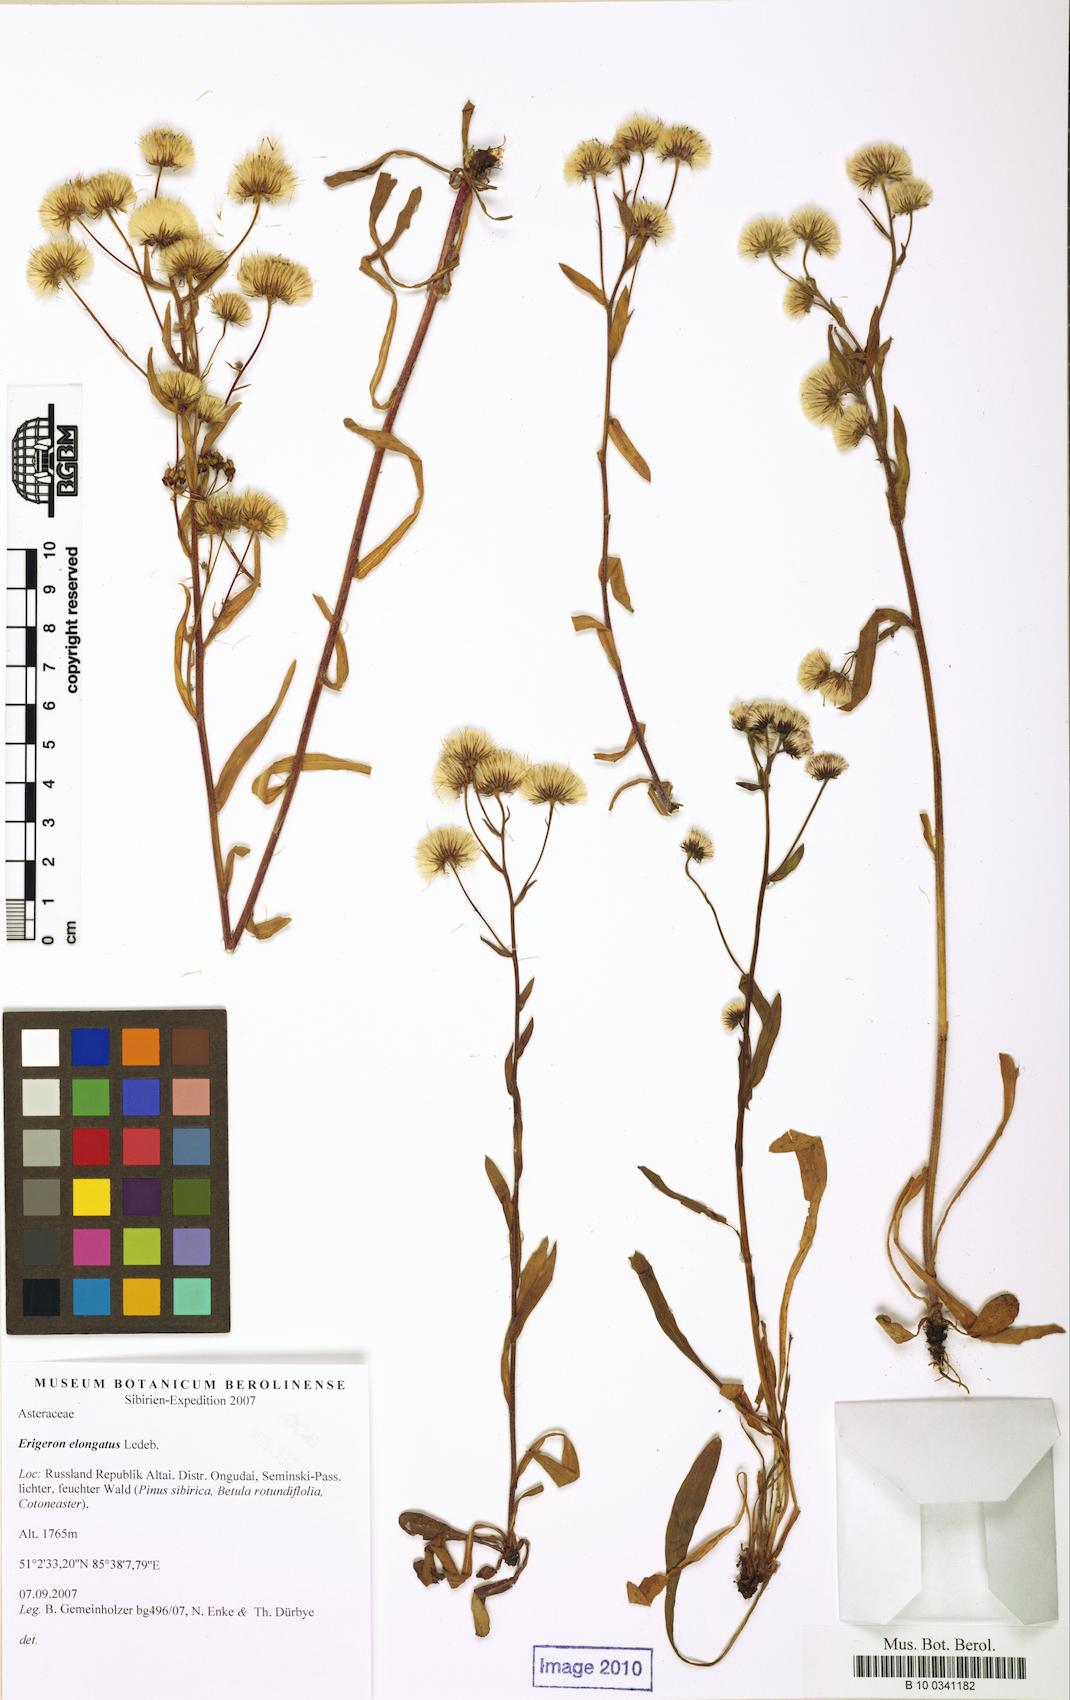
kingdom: Plantae
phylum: Tracheophyta
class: Magnoliopsida
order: Asterales
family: Asteraceae
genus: Erigeron
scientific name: Erigeron politus
